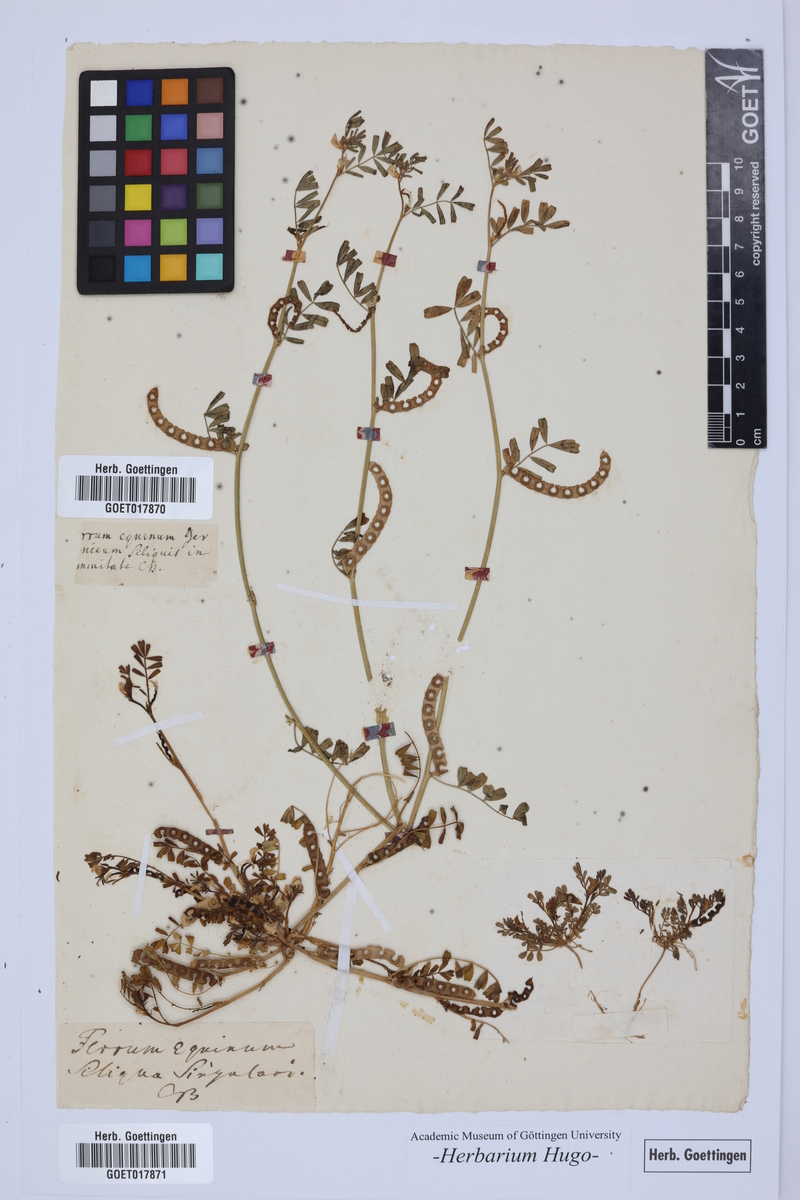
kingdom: Plantae
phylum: Tracheophyta
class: Magnoliopsida
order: Fabales
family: Fabaceae
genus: Hippocrepis
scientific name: Hippocrepis comosa
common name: Horseshoe vetch
